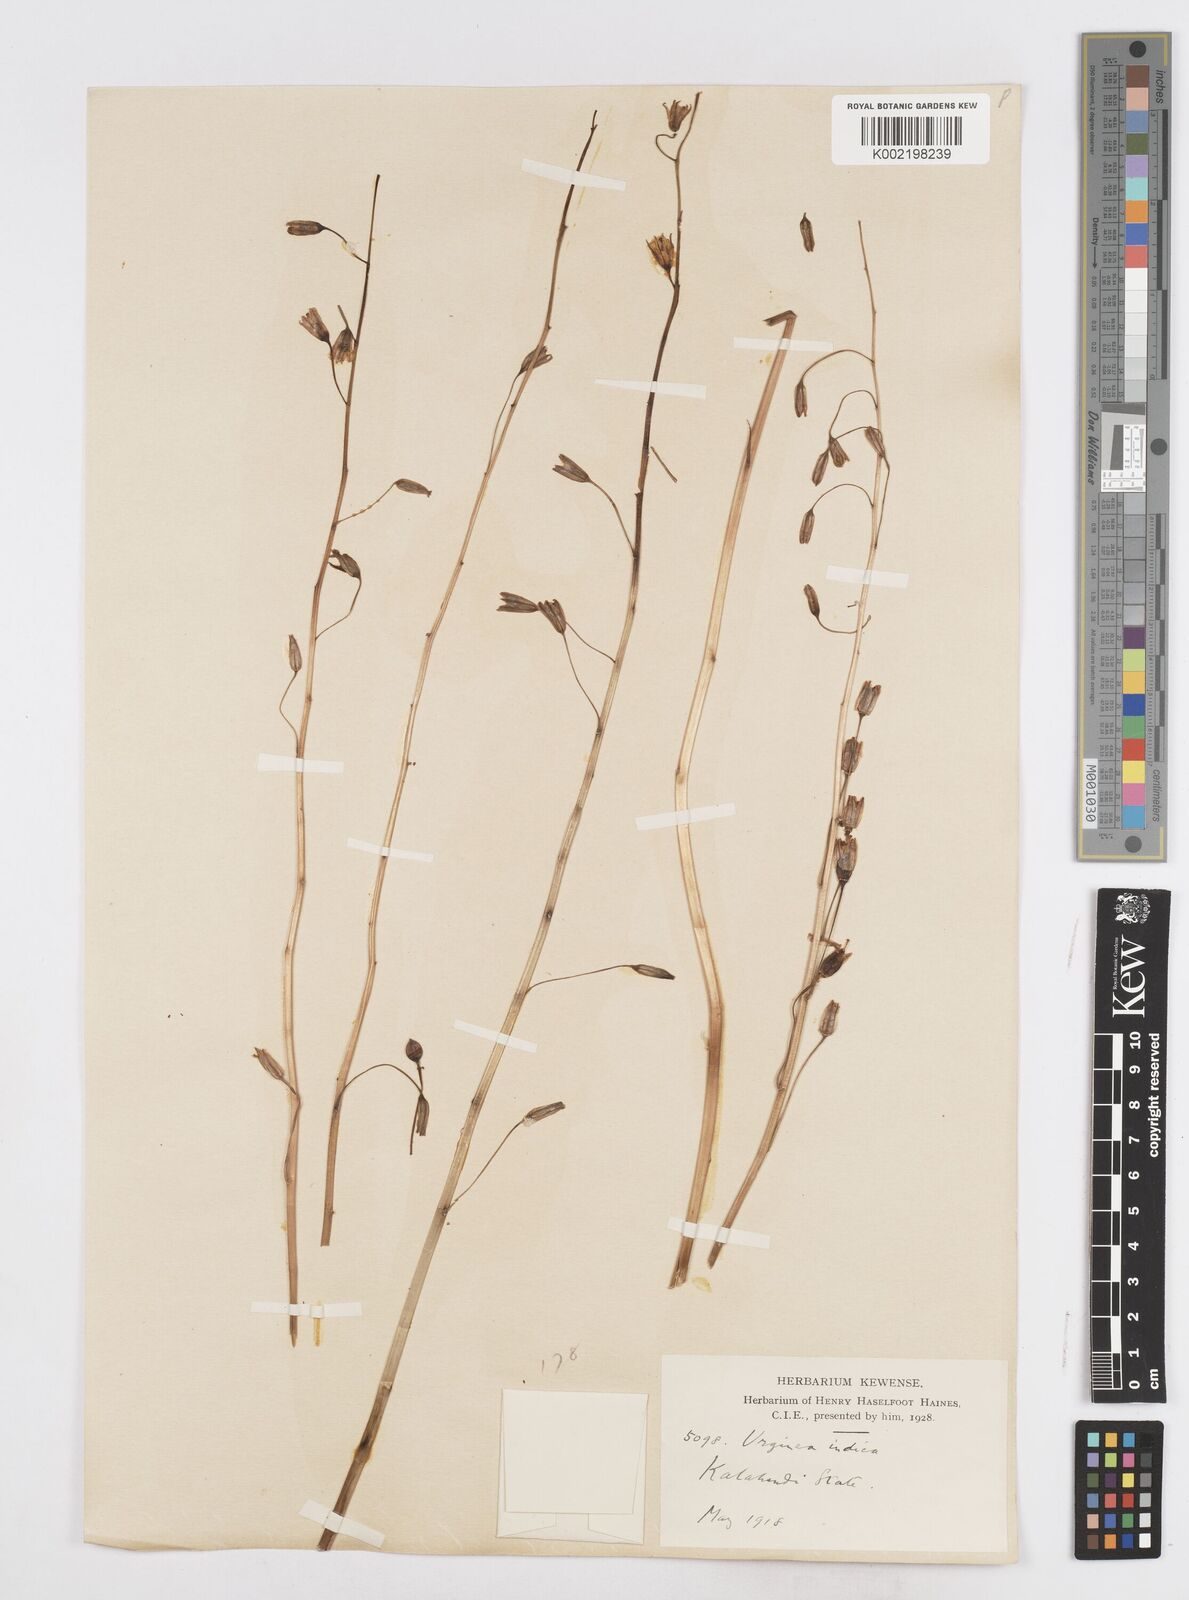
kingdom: Plantae
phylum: Tracheophyta
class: Liliopsida
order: Asparagales
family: Asparagaceae
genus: Drimia
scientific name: Drimia indica
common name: Indian-squill
